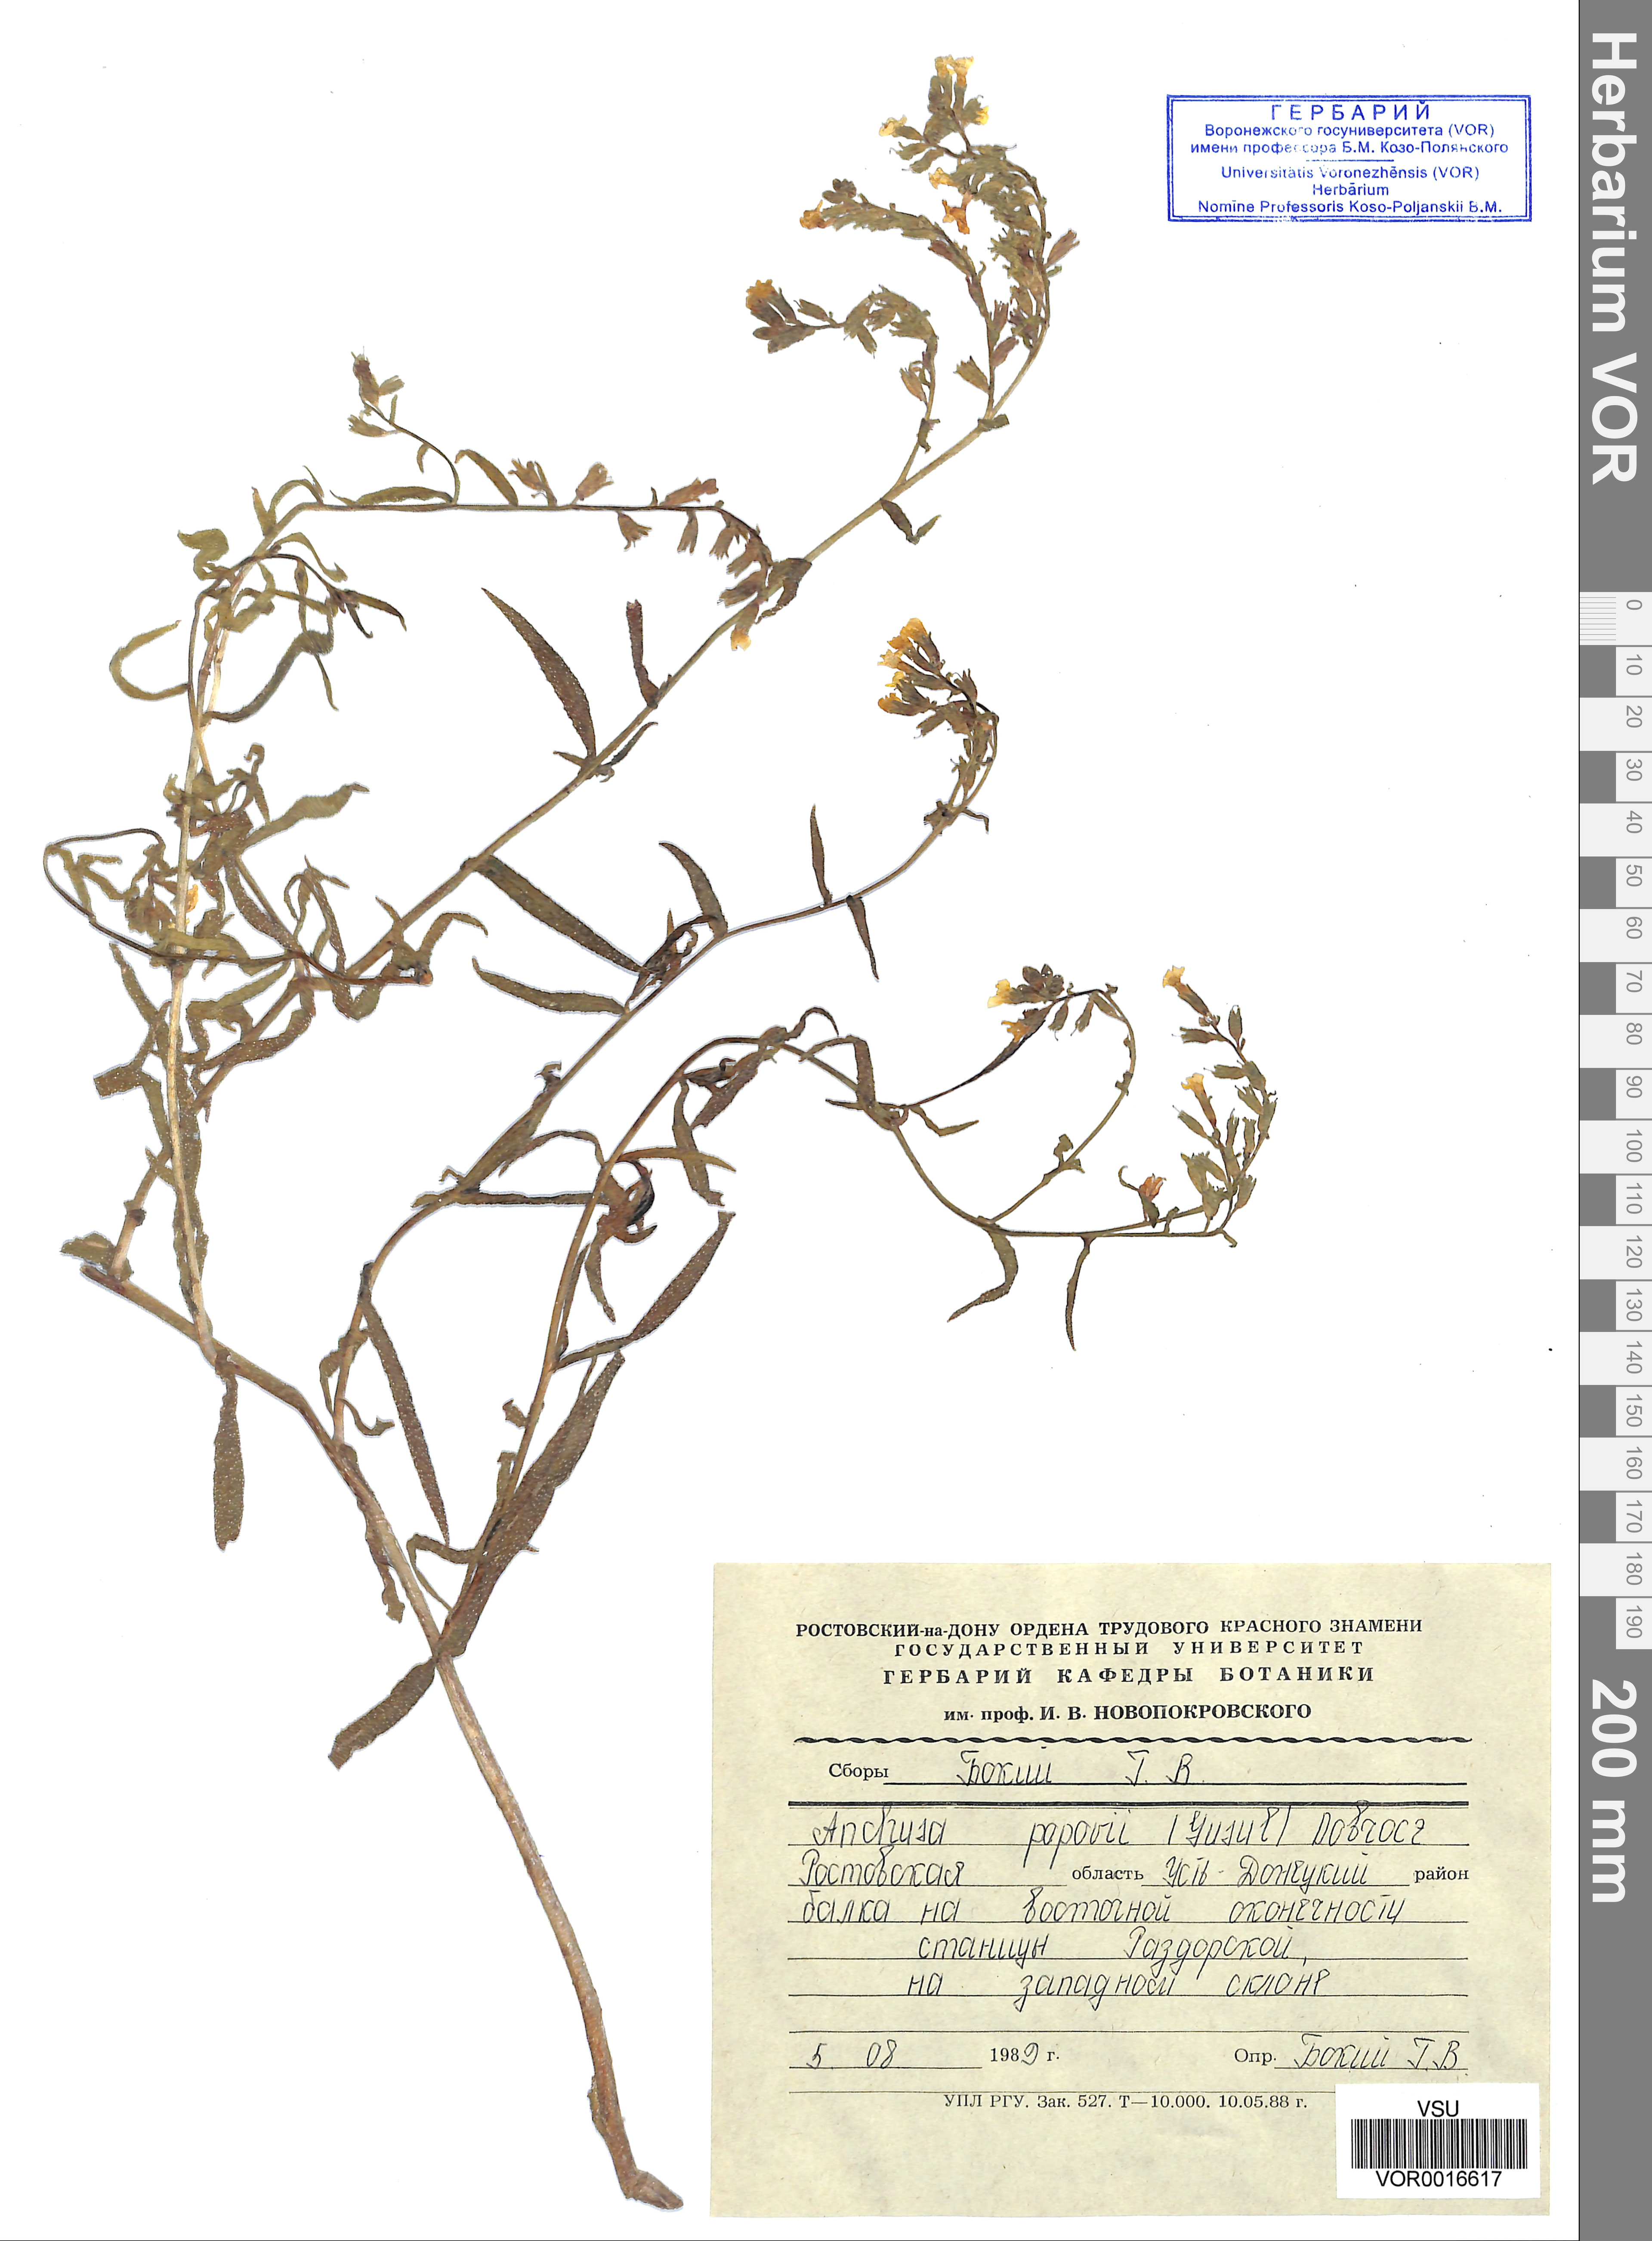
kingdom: Plantae
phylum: Tracheophyta
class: Magnoliopsida
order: Boraginales
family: Boraginaceae
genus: Anchusa
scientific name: Anchusa ochroleuca
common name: Yellow alkanet
